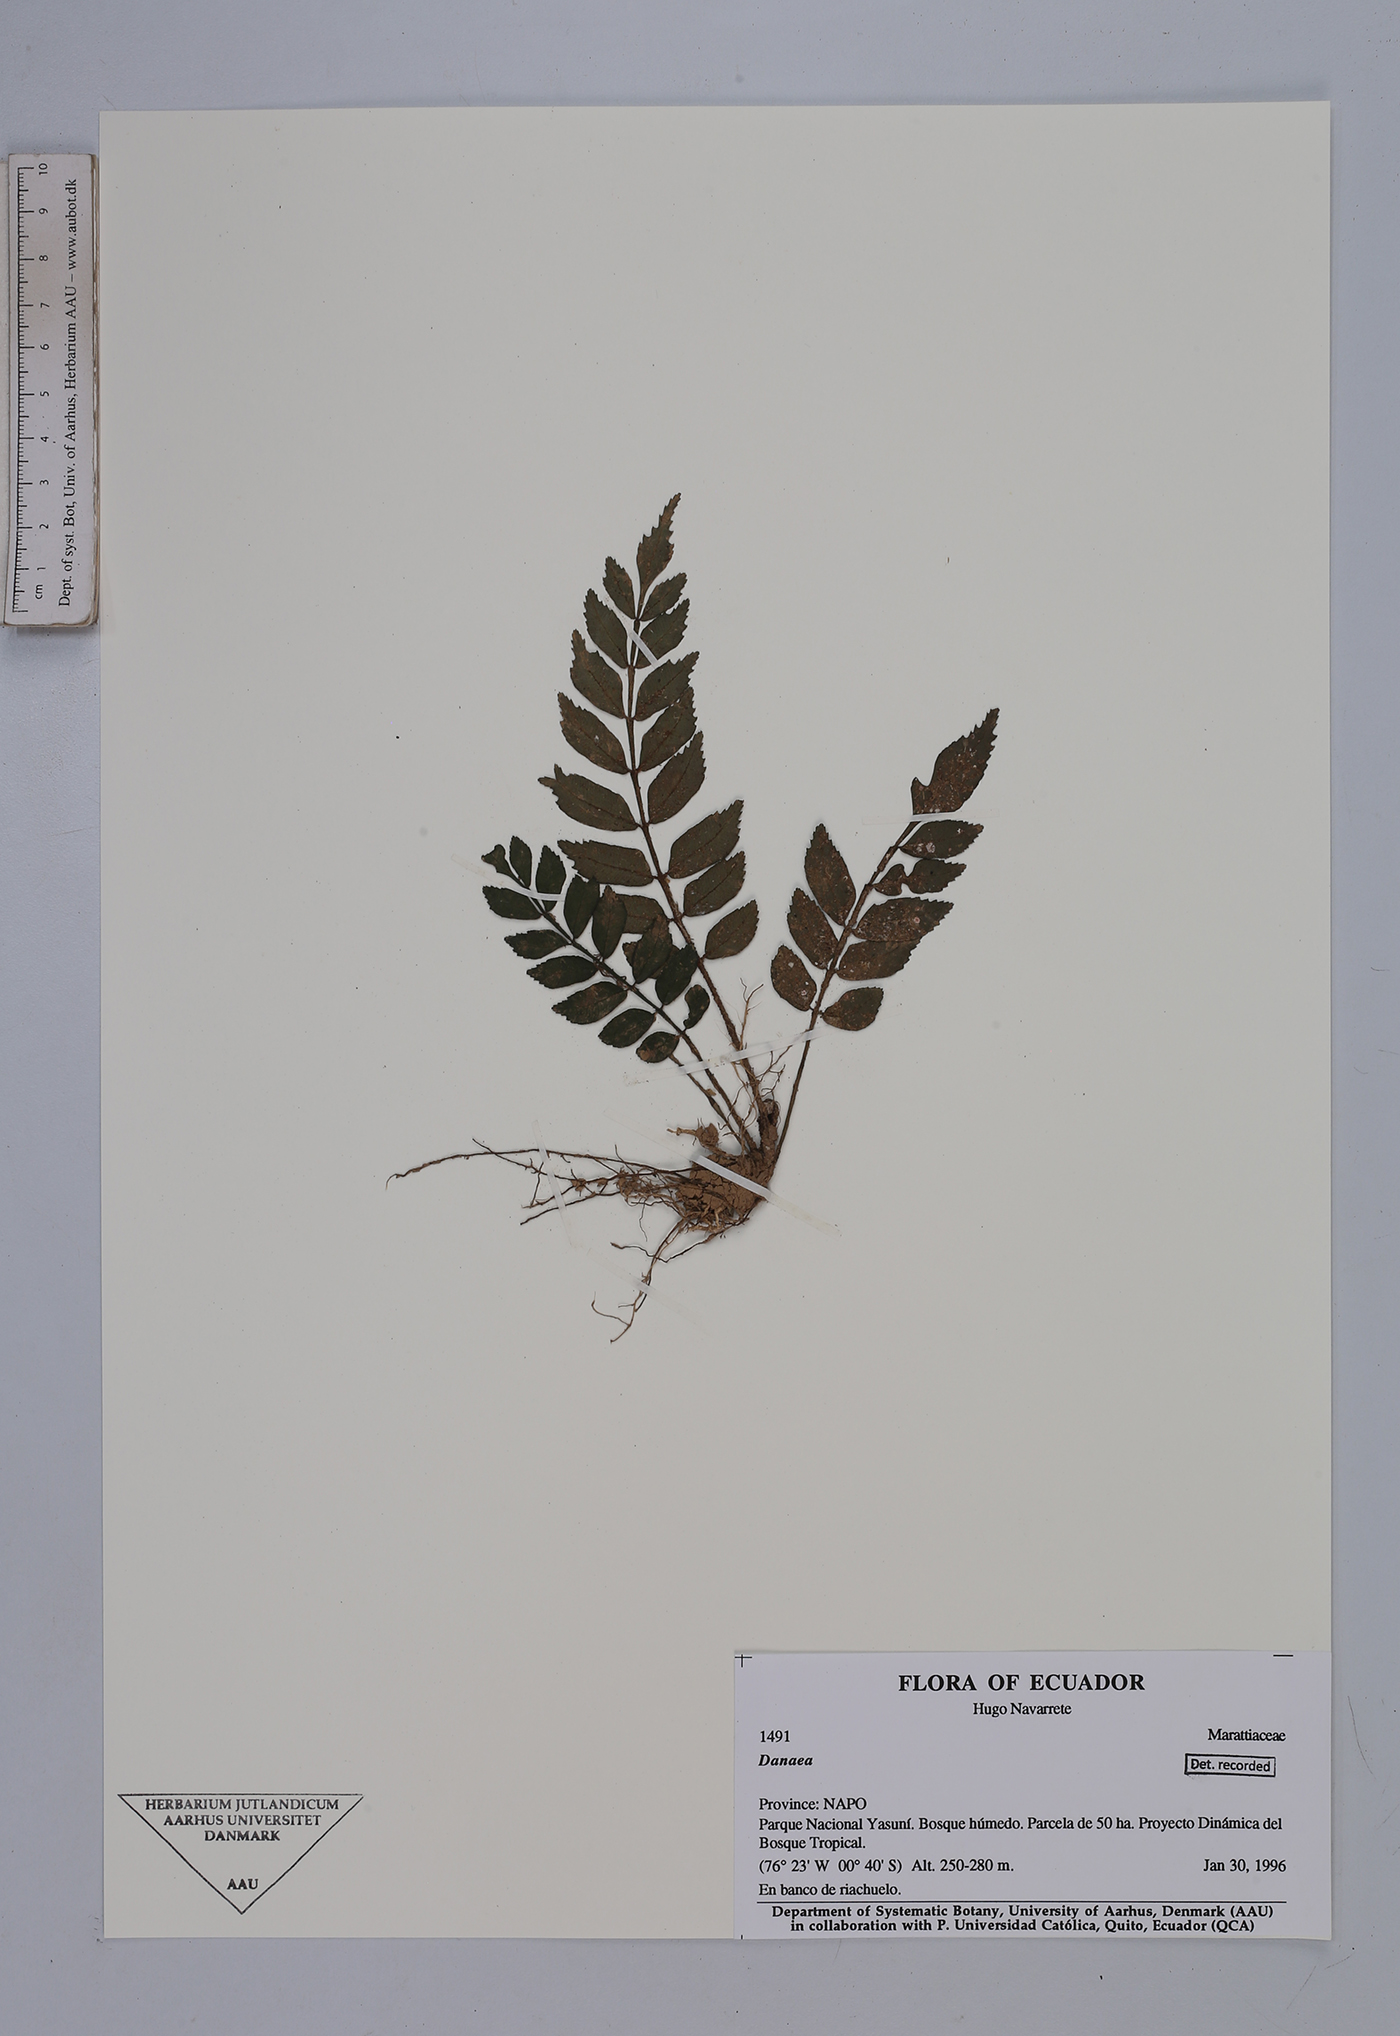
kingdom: Plantae
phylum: Tracheophyta
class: Polypodiopsida
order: Marattiales
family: Marattiaceae
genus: Danaea
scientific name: Danaea
